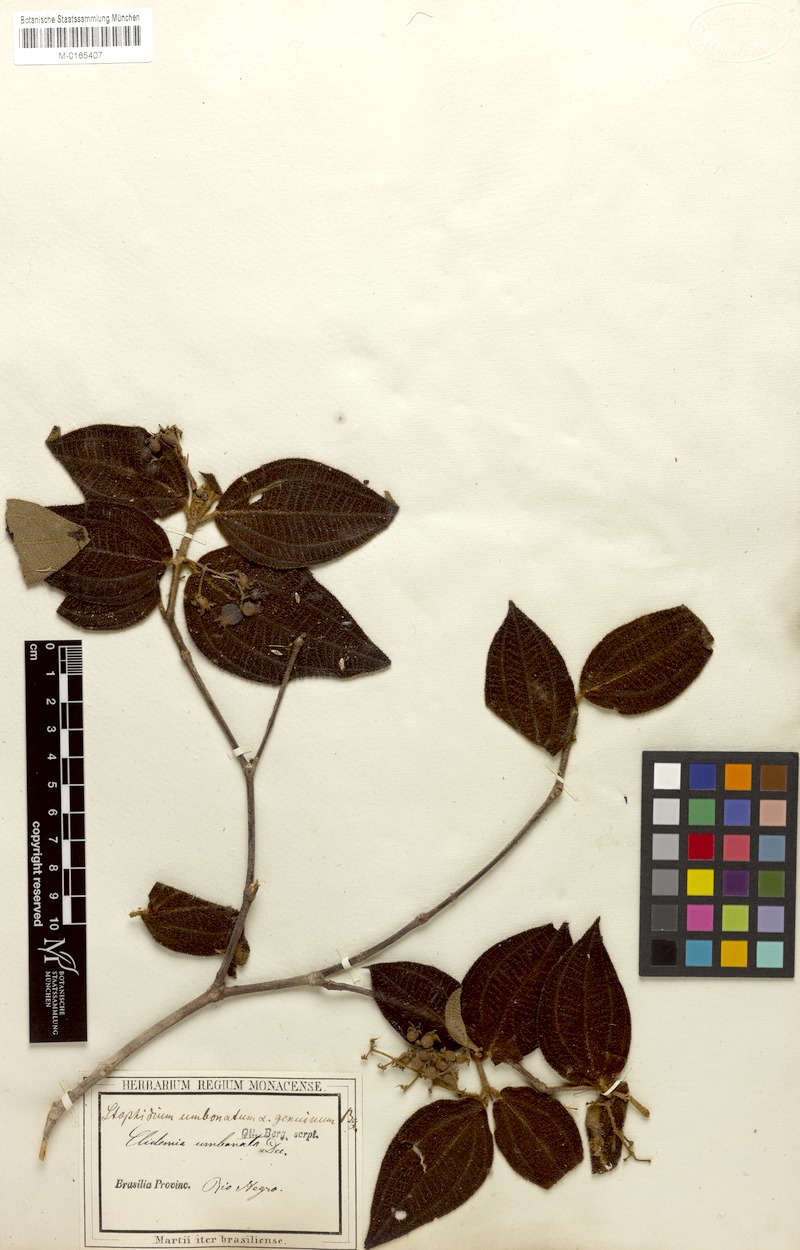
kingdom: Plantae
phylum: Tracheophyta
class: Magnoliopsida
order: Myrtales
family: Melastomataceae
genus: Miconia
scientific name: Miconia strigillosa
